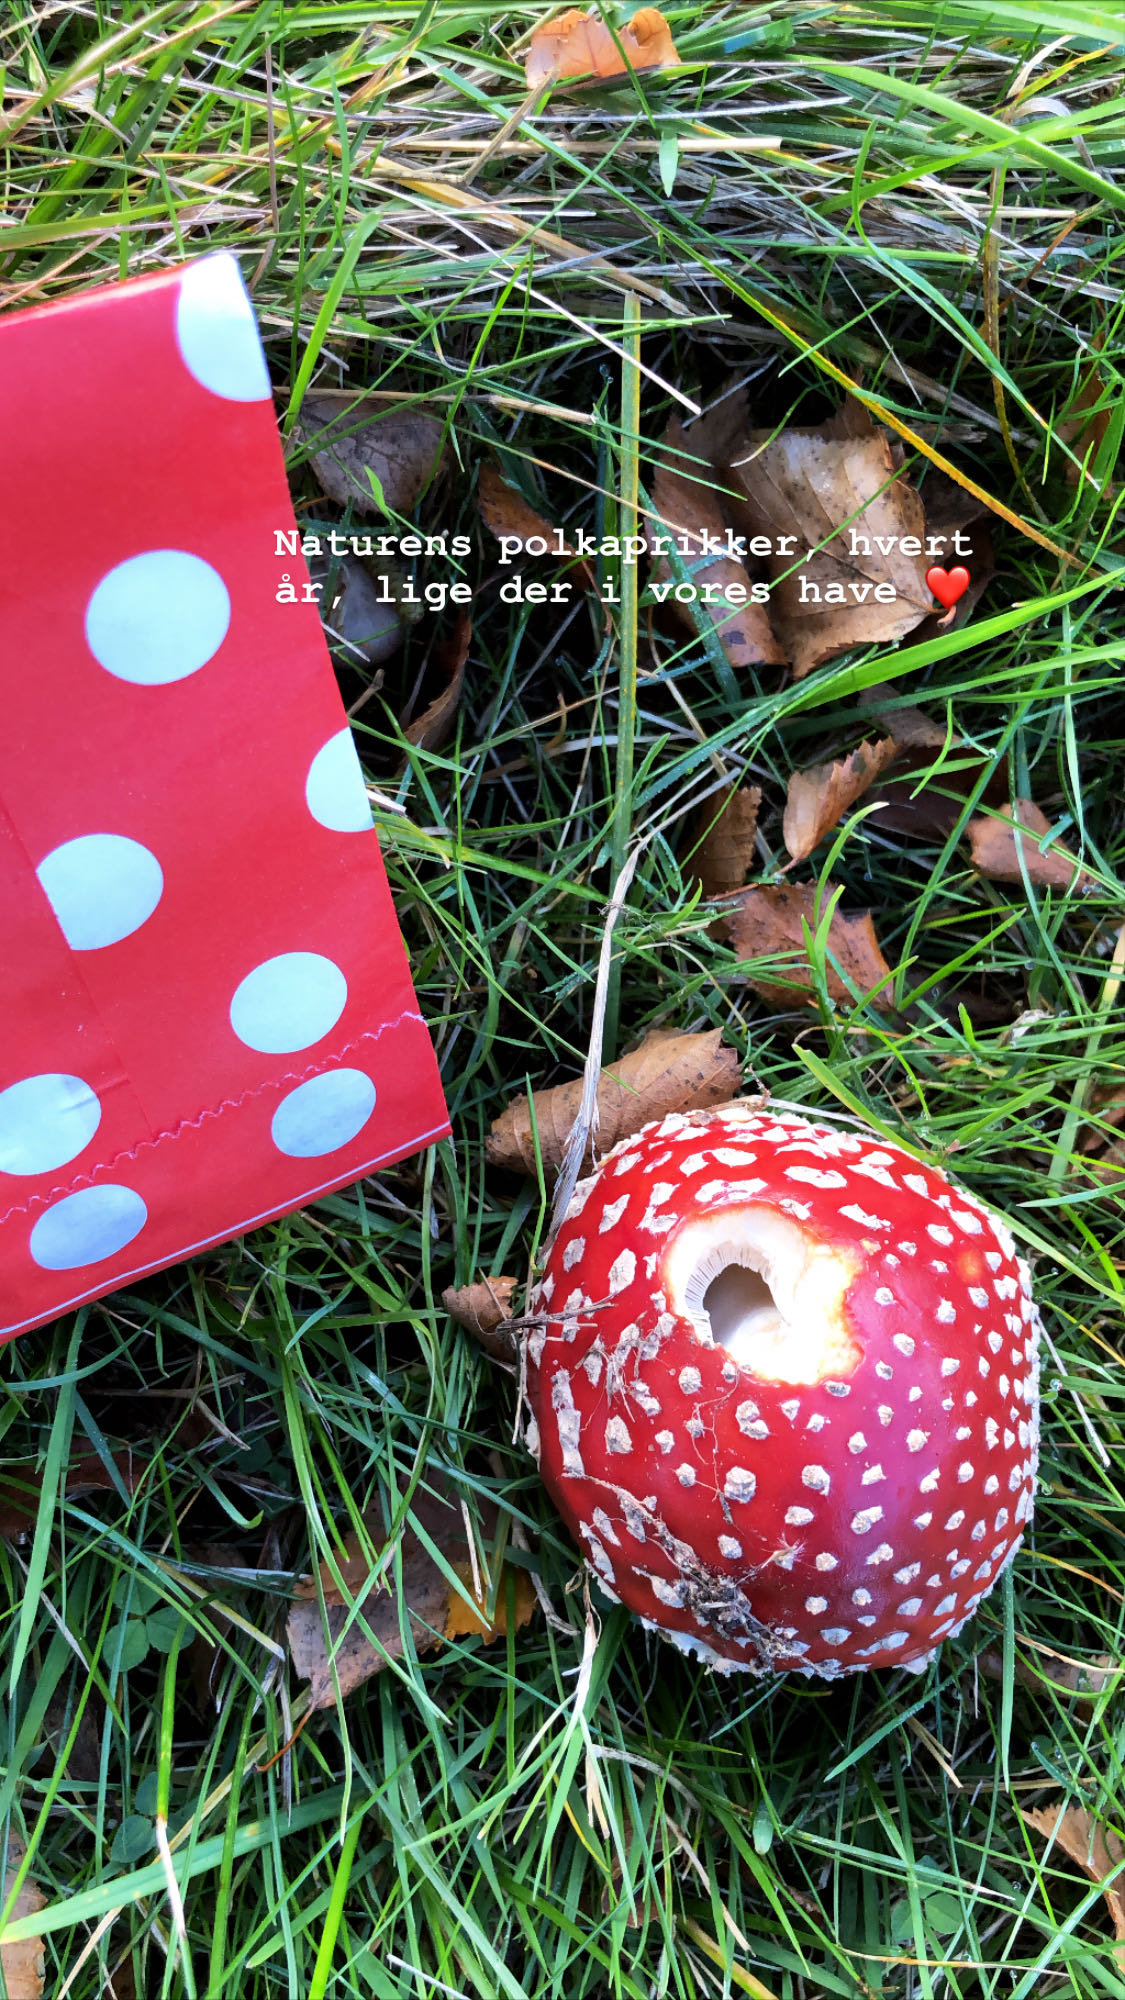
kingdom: Fungi
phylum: Basidiomycota
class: Agaricomycetes
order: Agaricales
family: Amanitaceae
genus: Amanita
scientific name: Amanita muscaria
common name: rød fluesvamp
